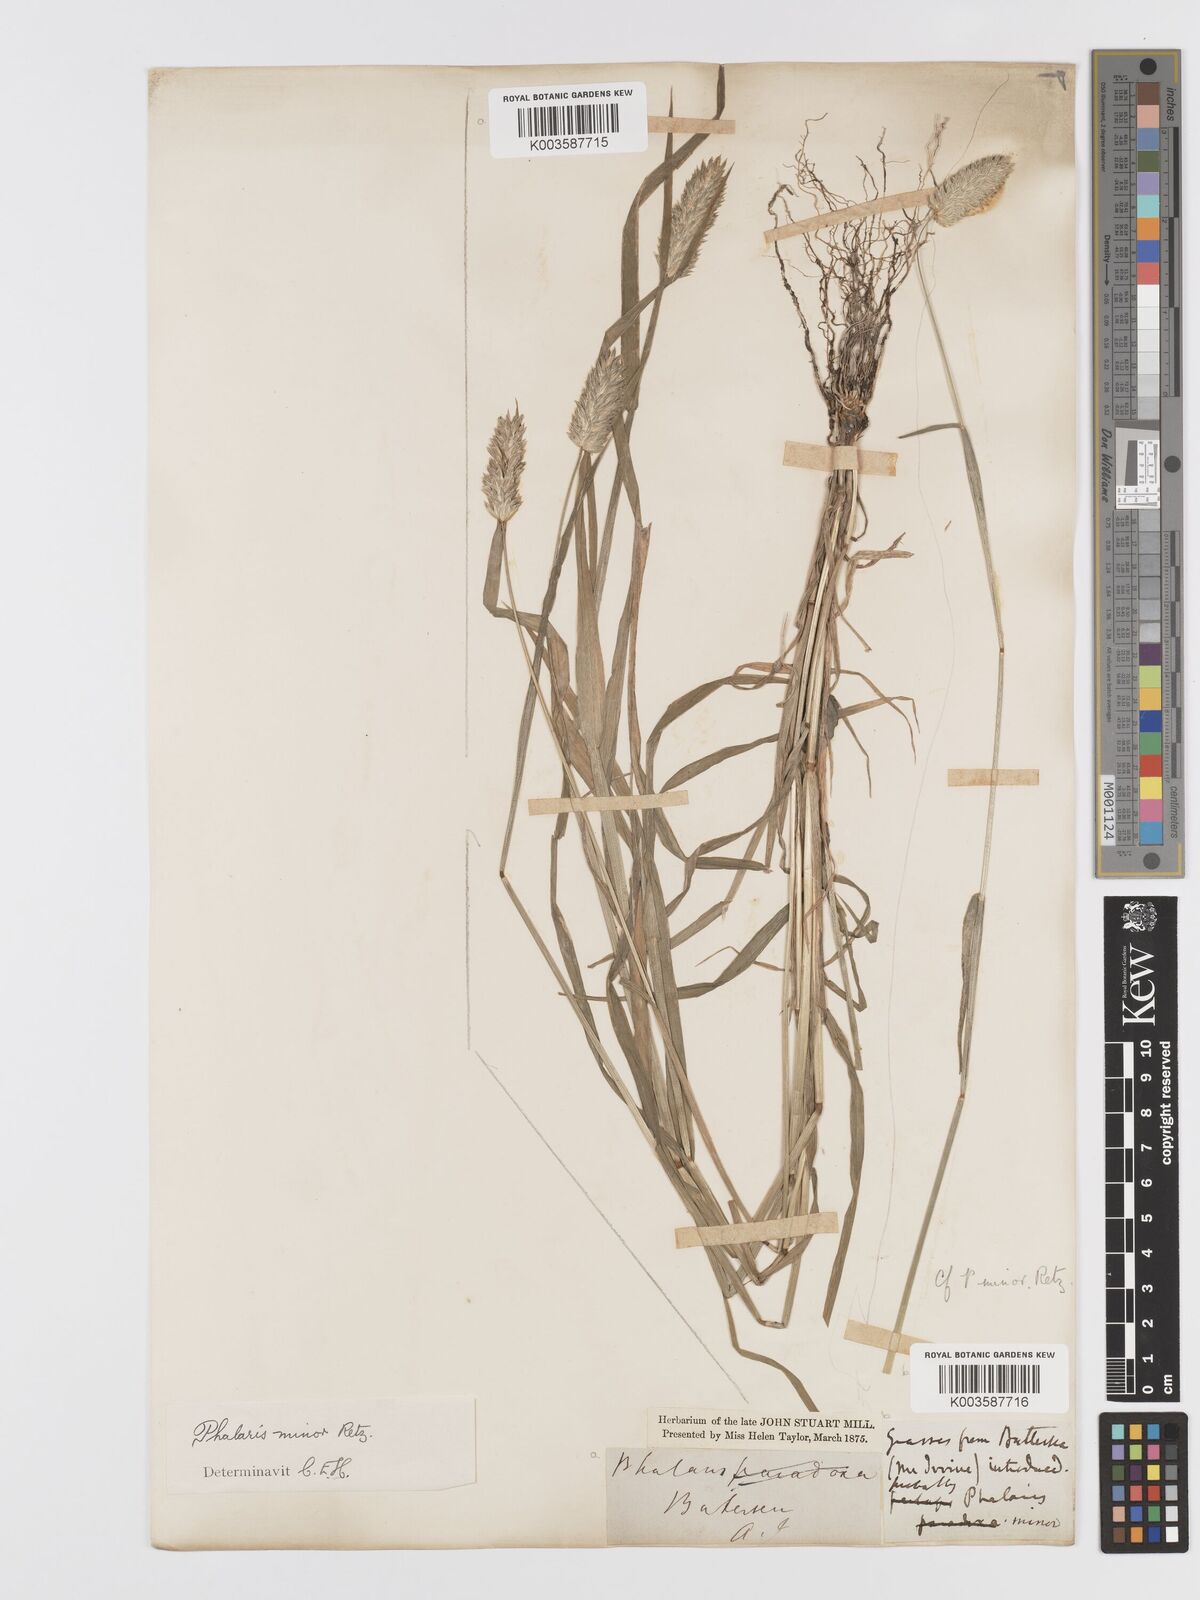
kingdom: Plantae
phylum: Tracheophyta
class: Liliopsida
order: Poales
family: Poaceae
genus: Phalaris
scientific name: Phalaris minor
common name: Littleseed canarygrass
